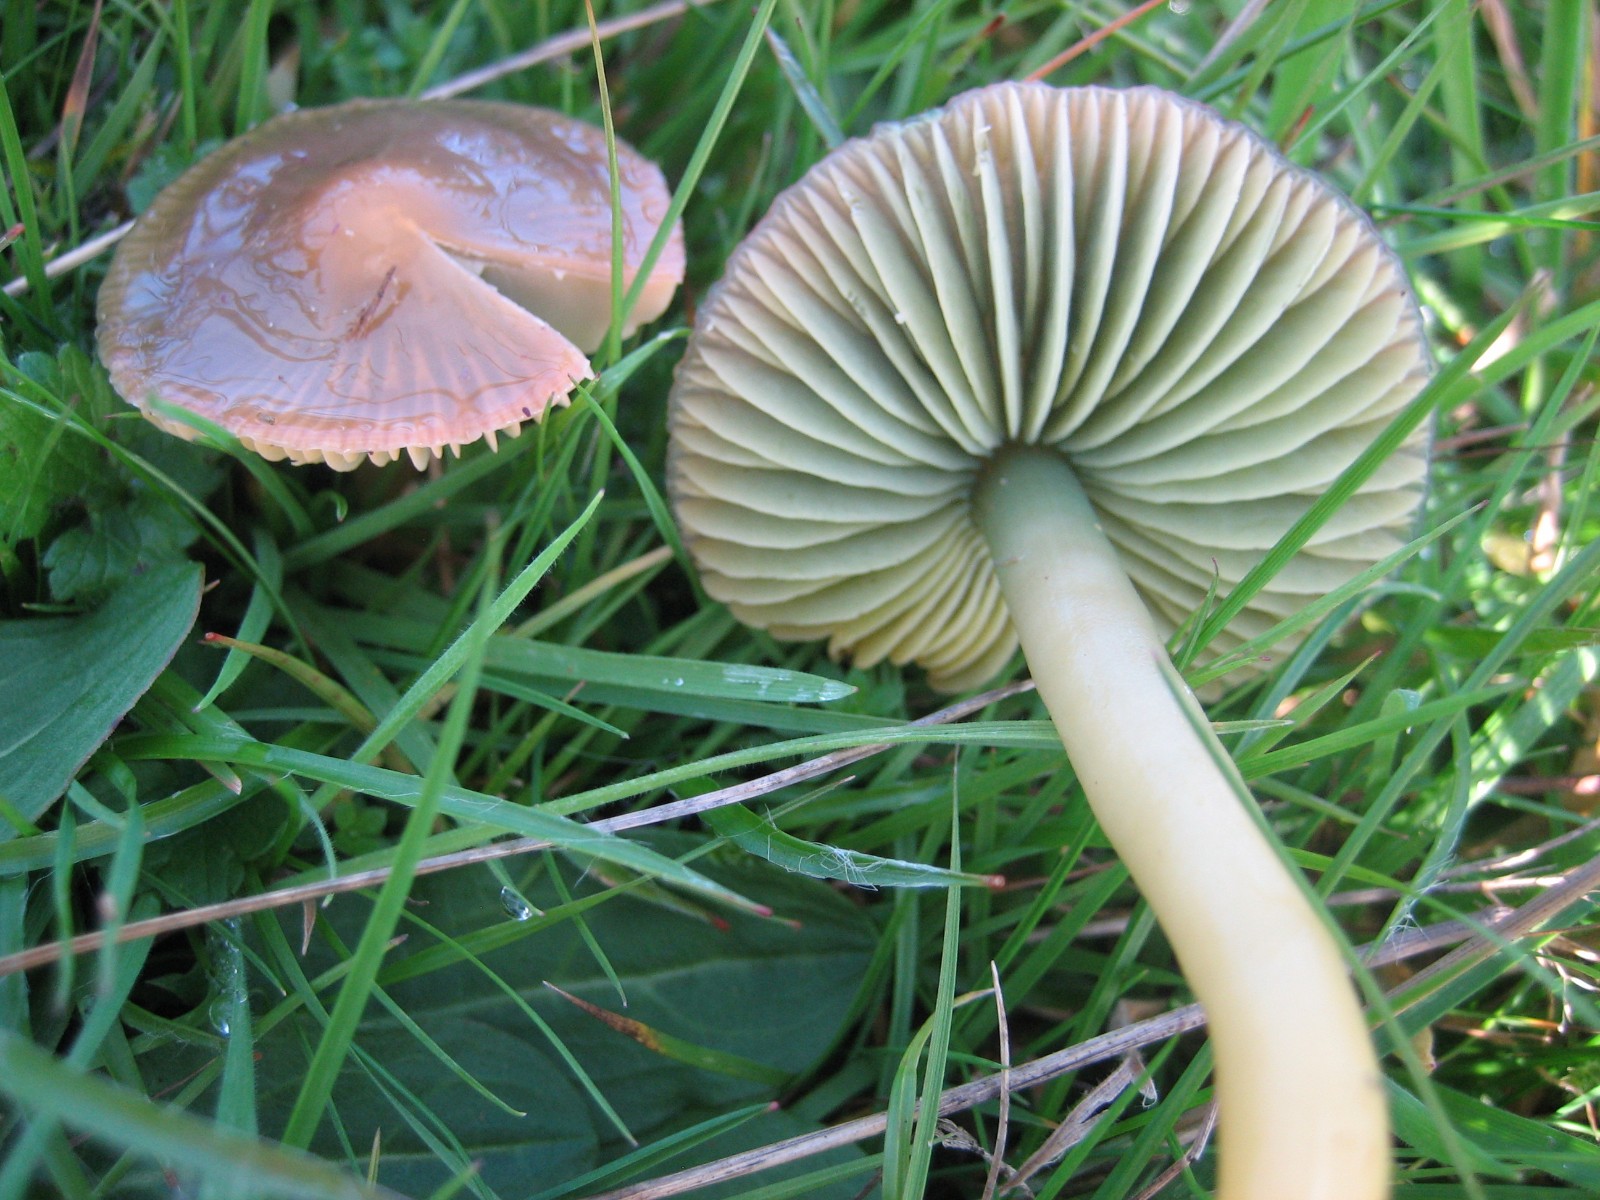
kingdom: Fungi
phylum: Basidiomycota
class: Agaricomycetes
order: Agaricales
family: Hygrophoraceae
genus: Gliophorus
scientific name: Gliophorus psittacinus
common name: papegøje-vokshat
